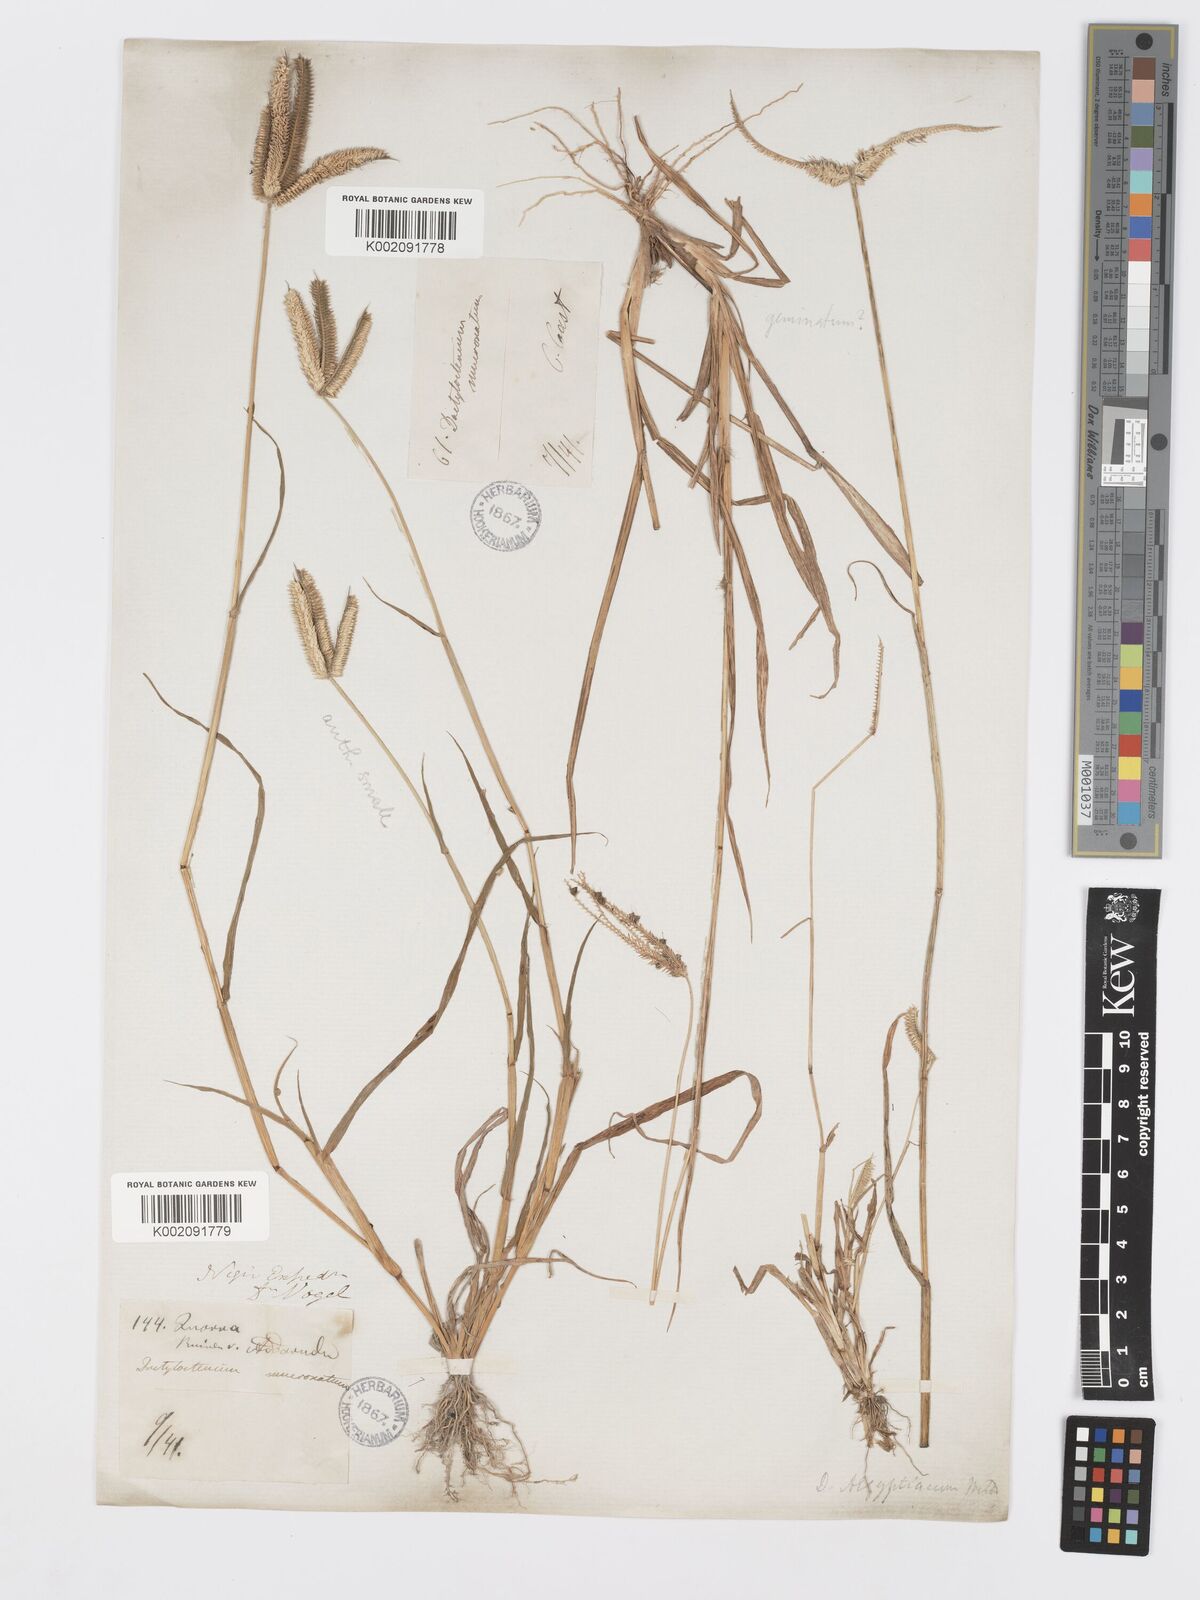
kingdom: Plantae
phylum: Tracheophyta
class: Liliopsida
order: Poales
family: Poaceae
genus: Dactyloctenium
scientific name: Dactyloctenium aegyptium
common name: Egyptian grass
